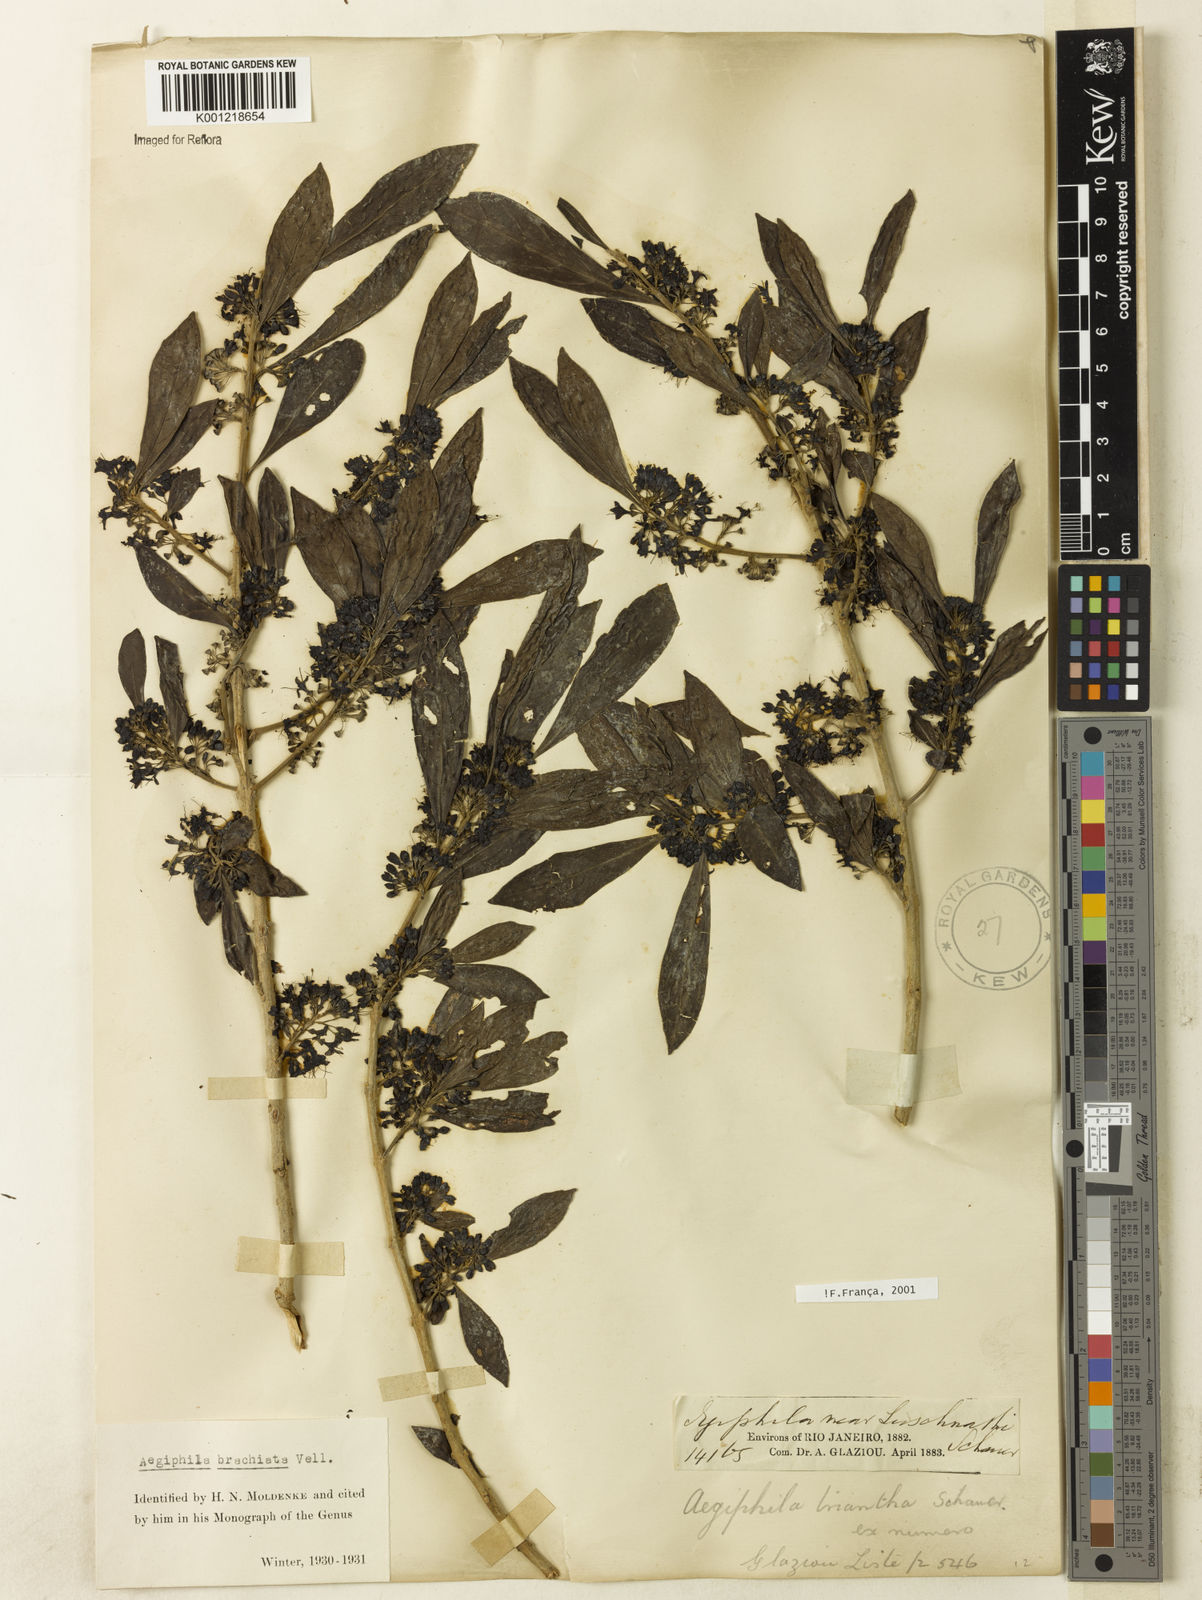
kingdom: Plantae
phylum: Tracheophyta
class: Magnoliopsida
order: Lamiales
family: Lamiaceae
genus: Aegiphila
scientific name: Aegiphila brachiata
